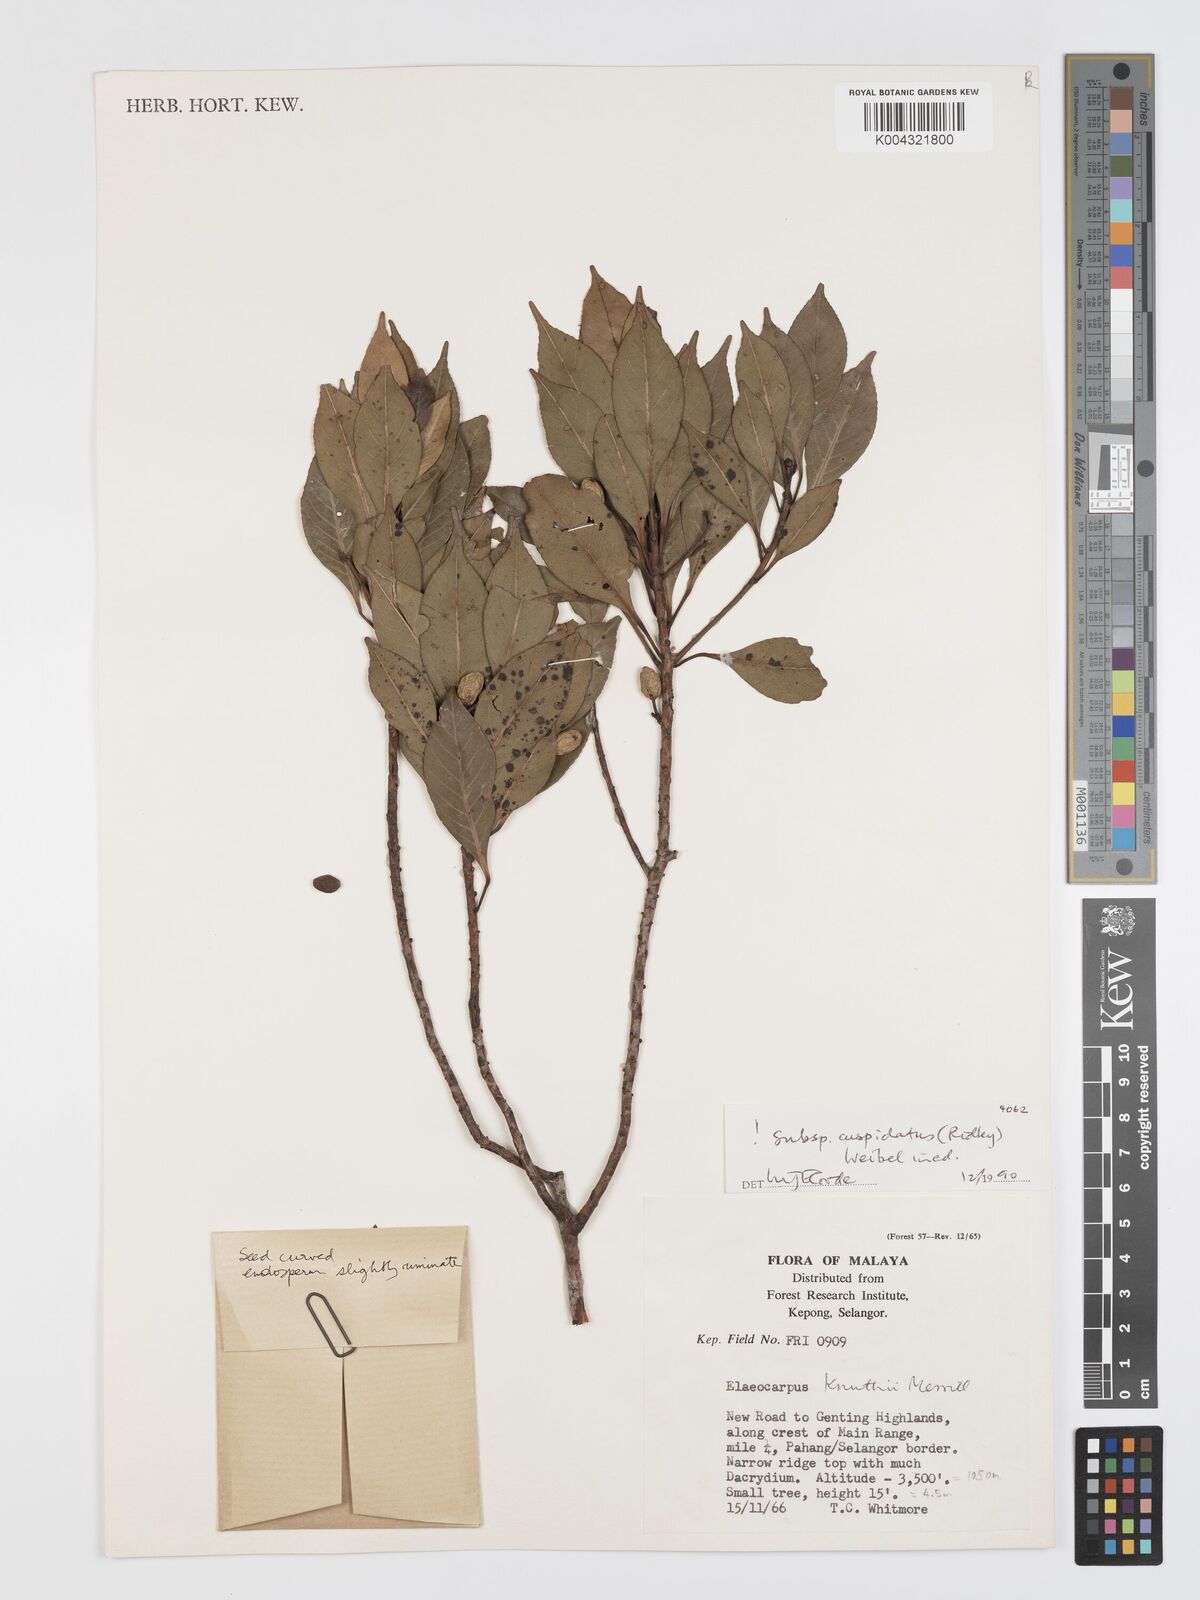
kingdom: Plantae
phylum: Tracheophyta
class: Magnoliopsida
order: Oxalidales
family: Elaeocarpaceae
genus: Elaeocarpus
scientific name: Elaeocarpus knuthii
